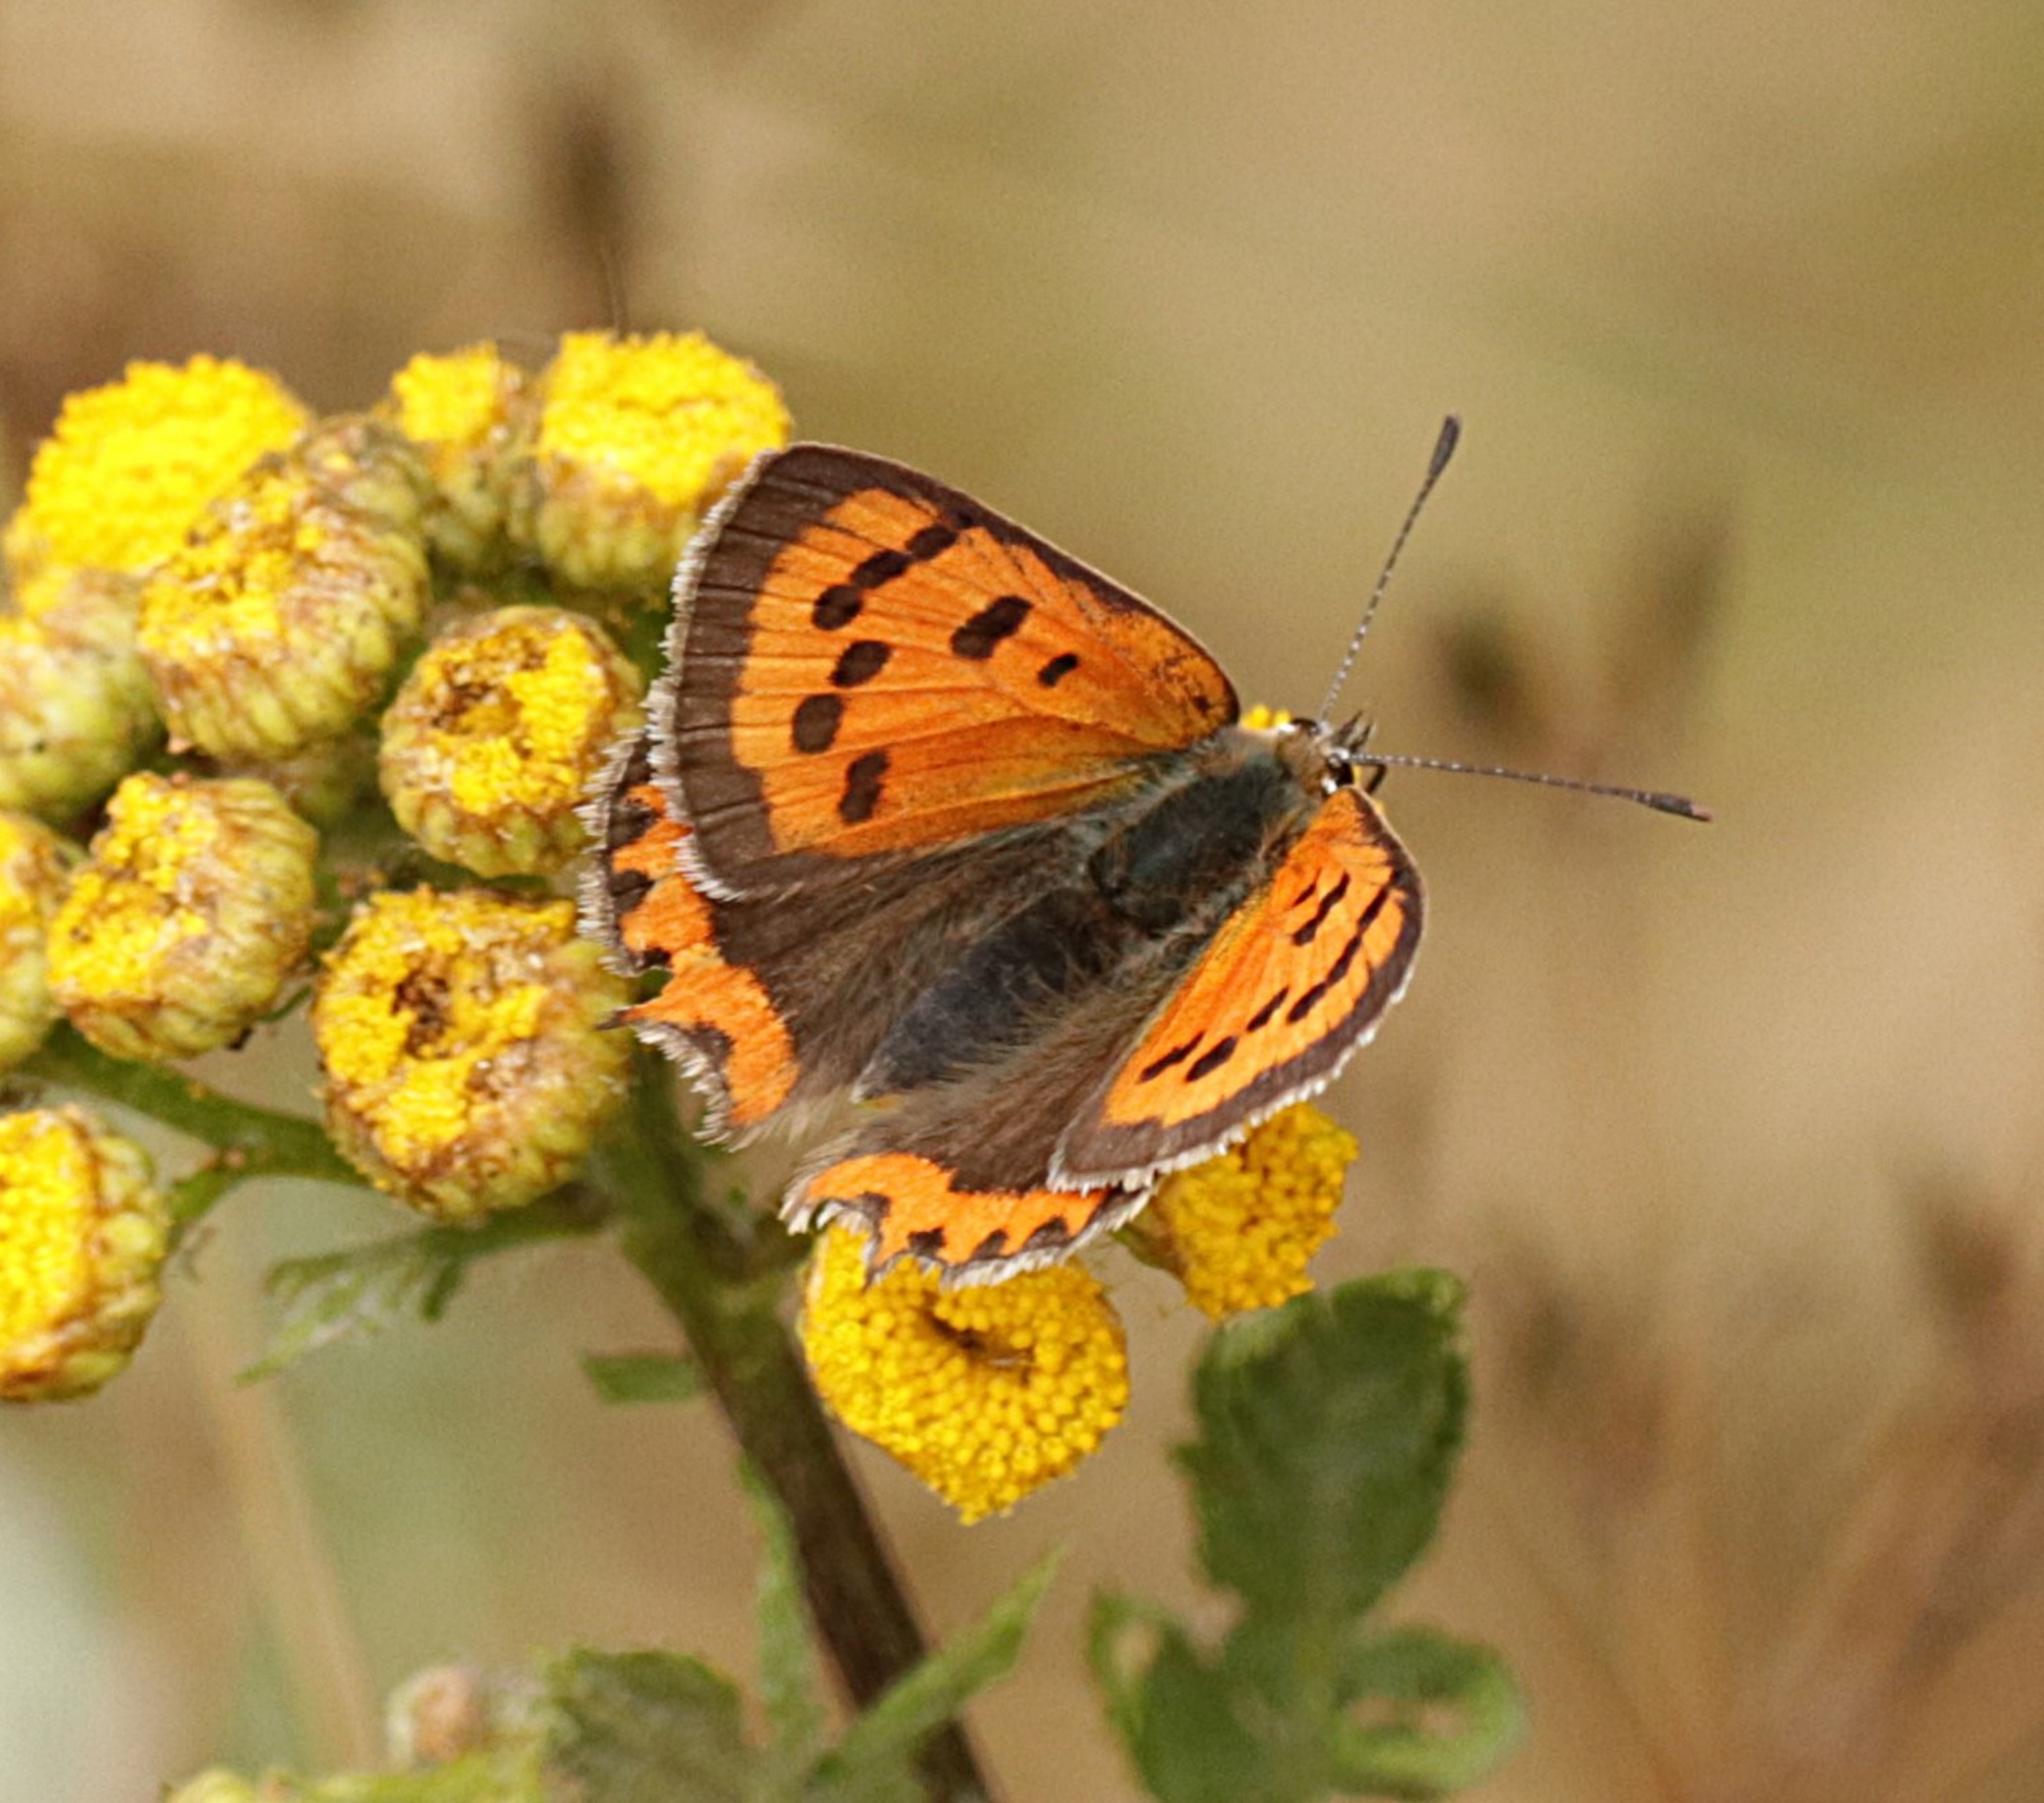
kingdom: Animalia
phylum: Arthropoda
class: Insecta
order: Lepidoptera
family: Lycaenidae
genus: Lycaena
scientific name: Lycaena phlaeas
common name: Lille ildfugl
